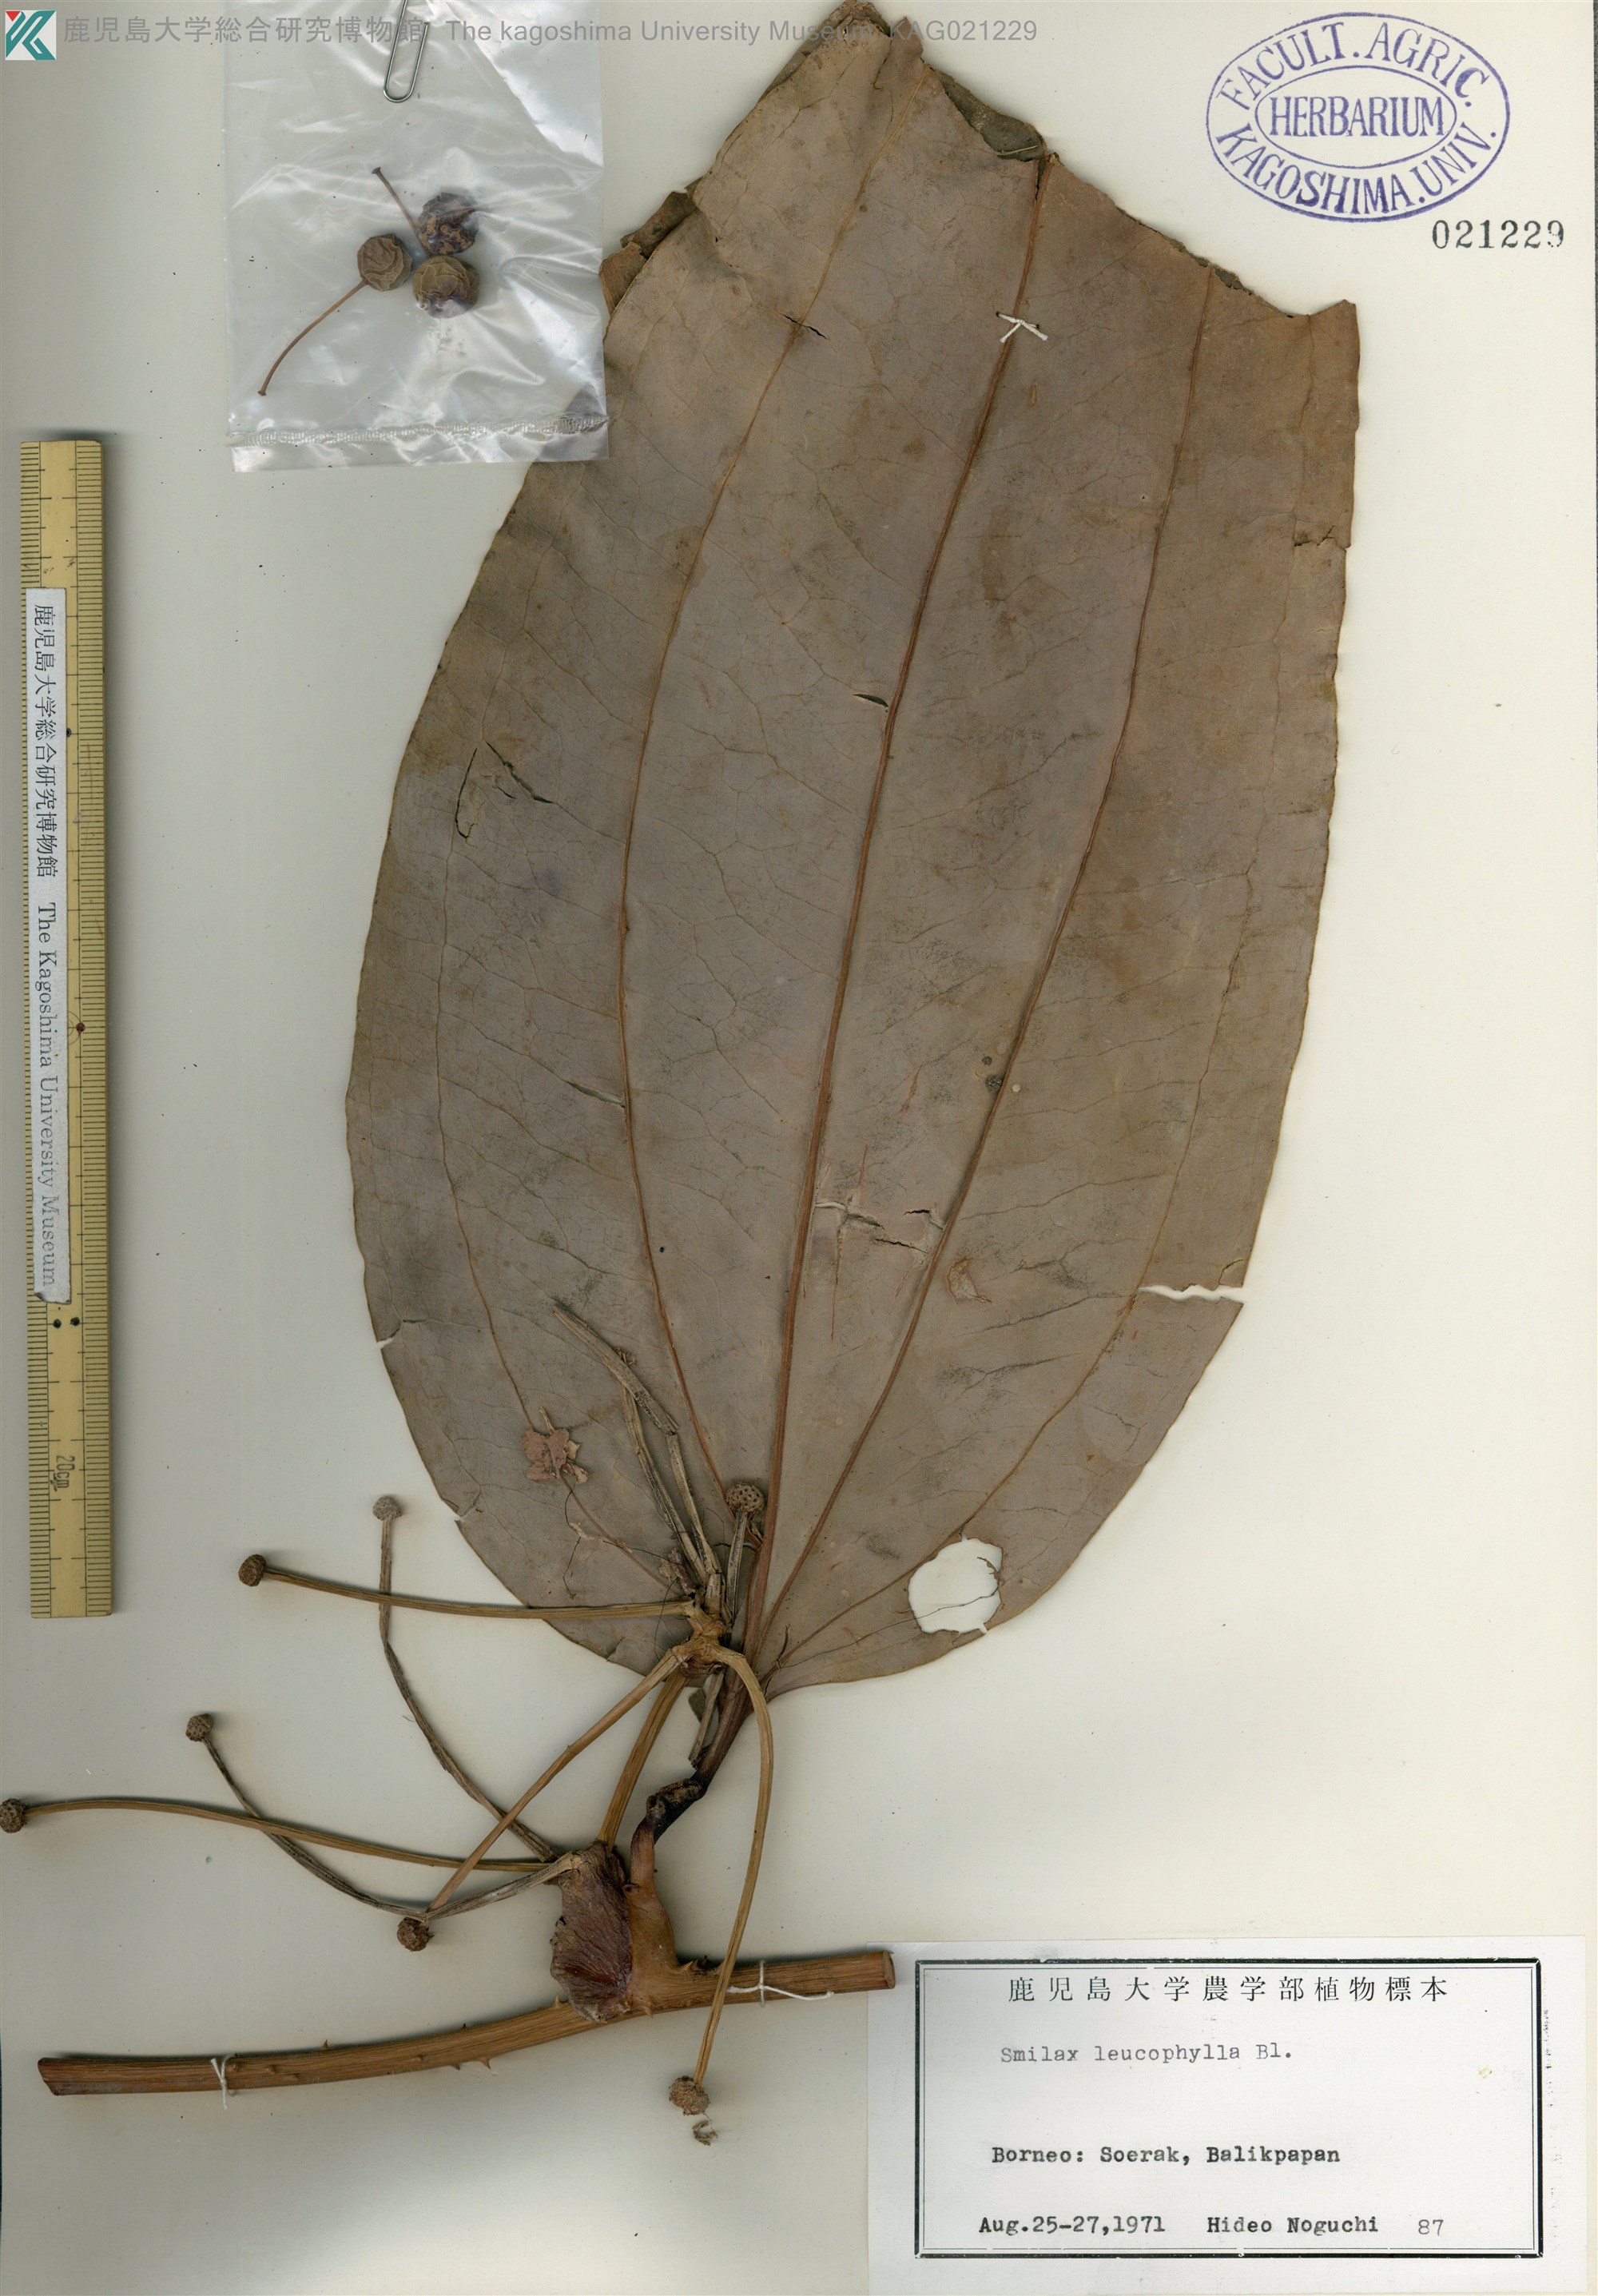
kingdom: Plantae
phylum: Tracheophyta
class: Liliopsida
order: Liliales
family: Smilacaceae
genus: Smilax
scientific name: Smilax leucophylla
